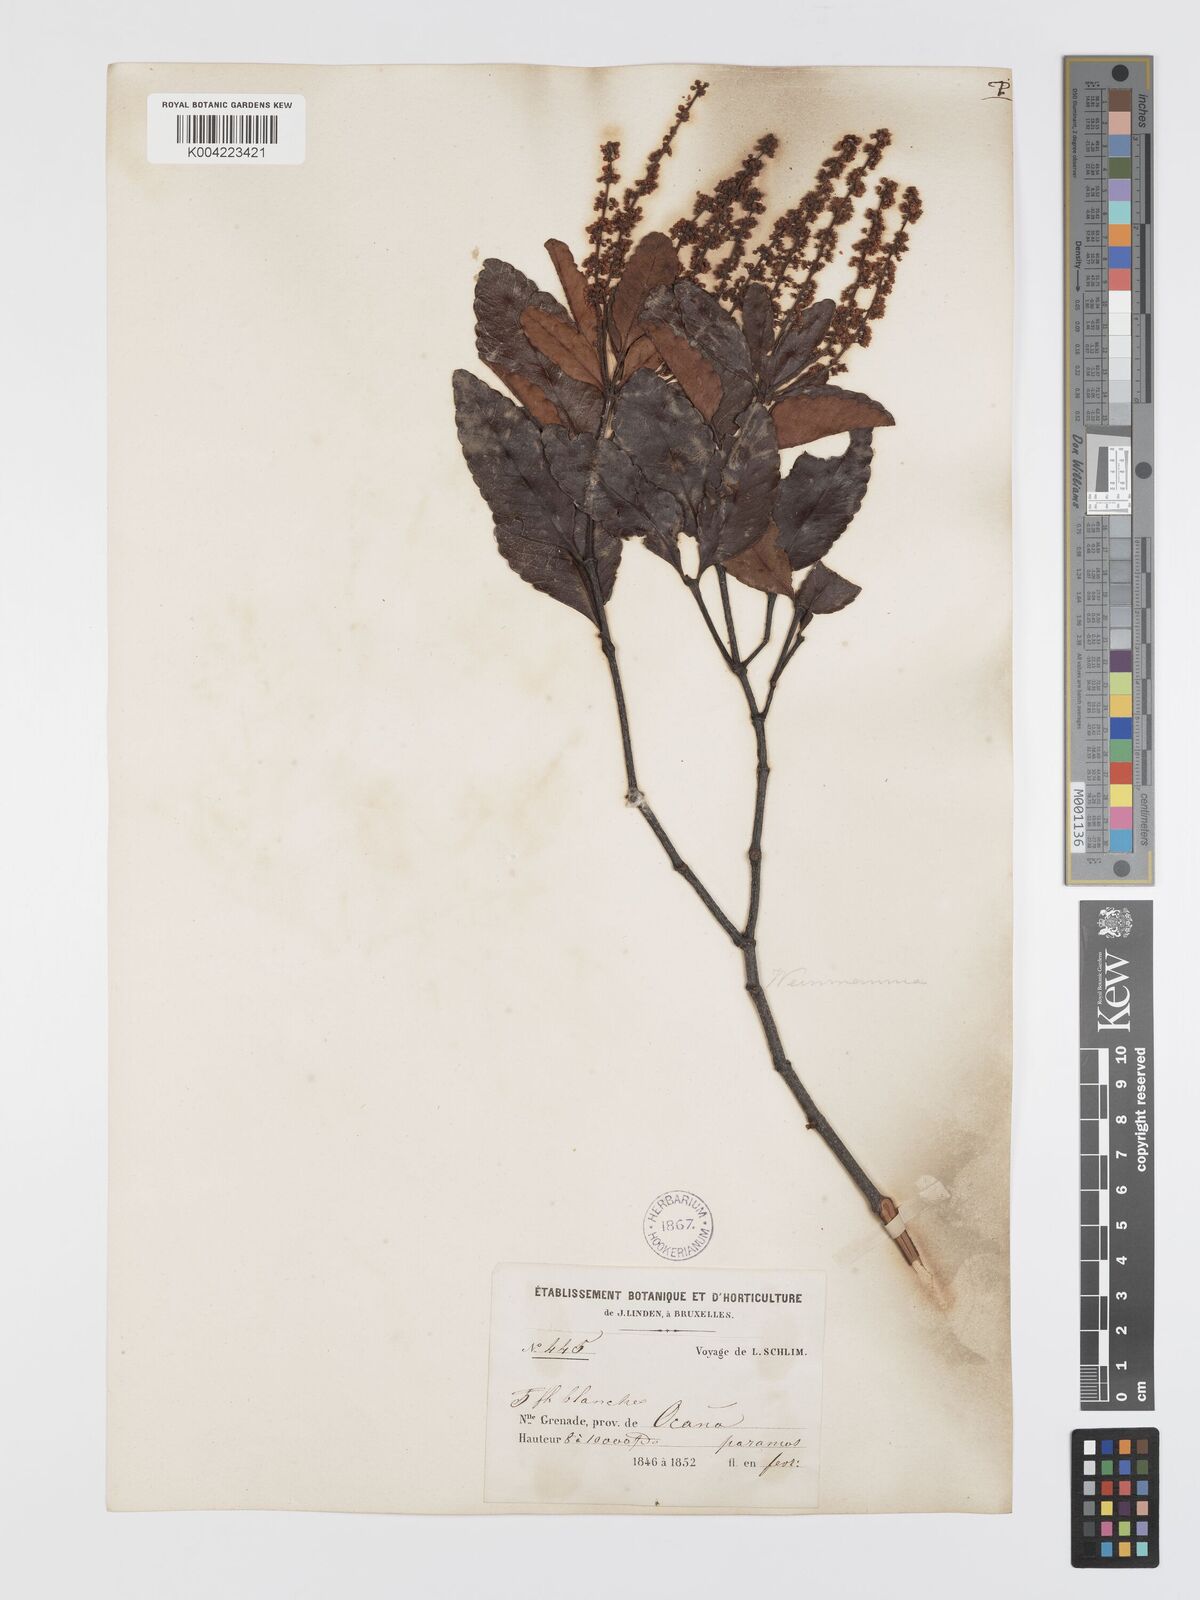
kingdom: Plantae
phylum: Tracheophyta
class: Magnoliopsida
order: Oxalidales
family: Cunoniaceae
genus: Weinmannia
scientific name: Weinmannia balbisana
